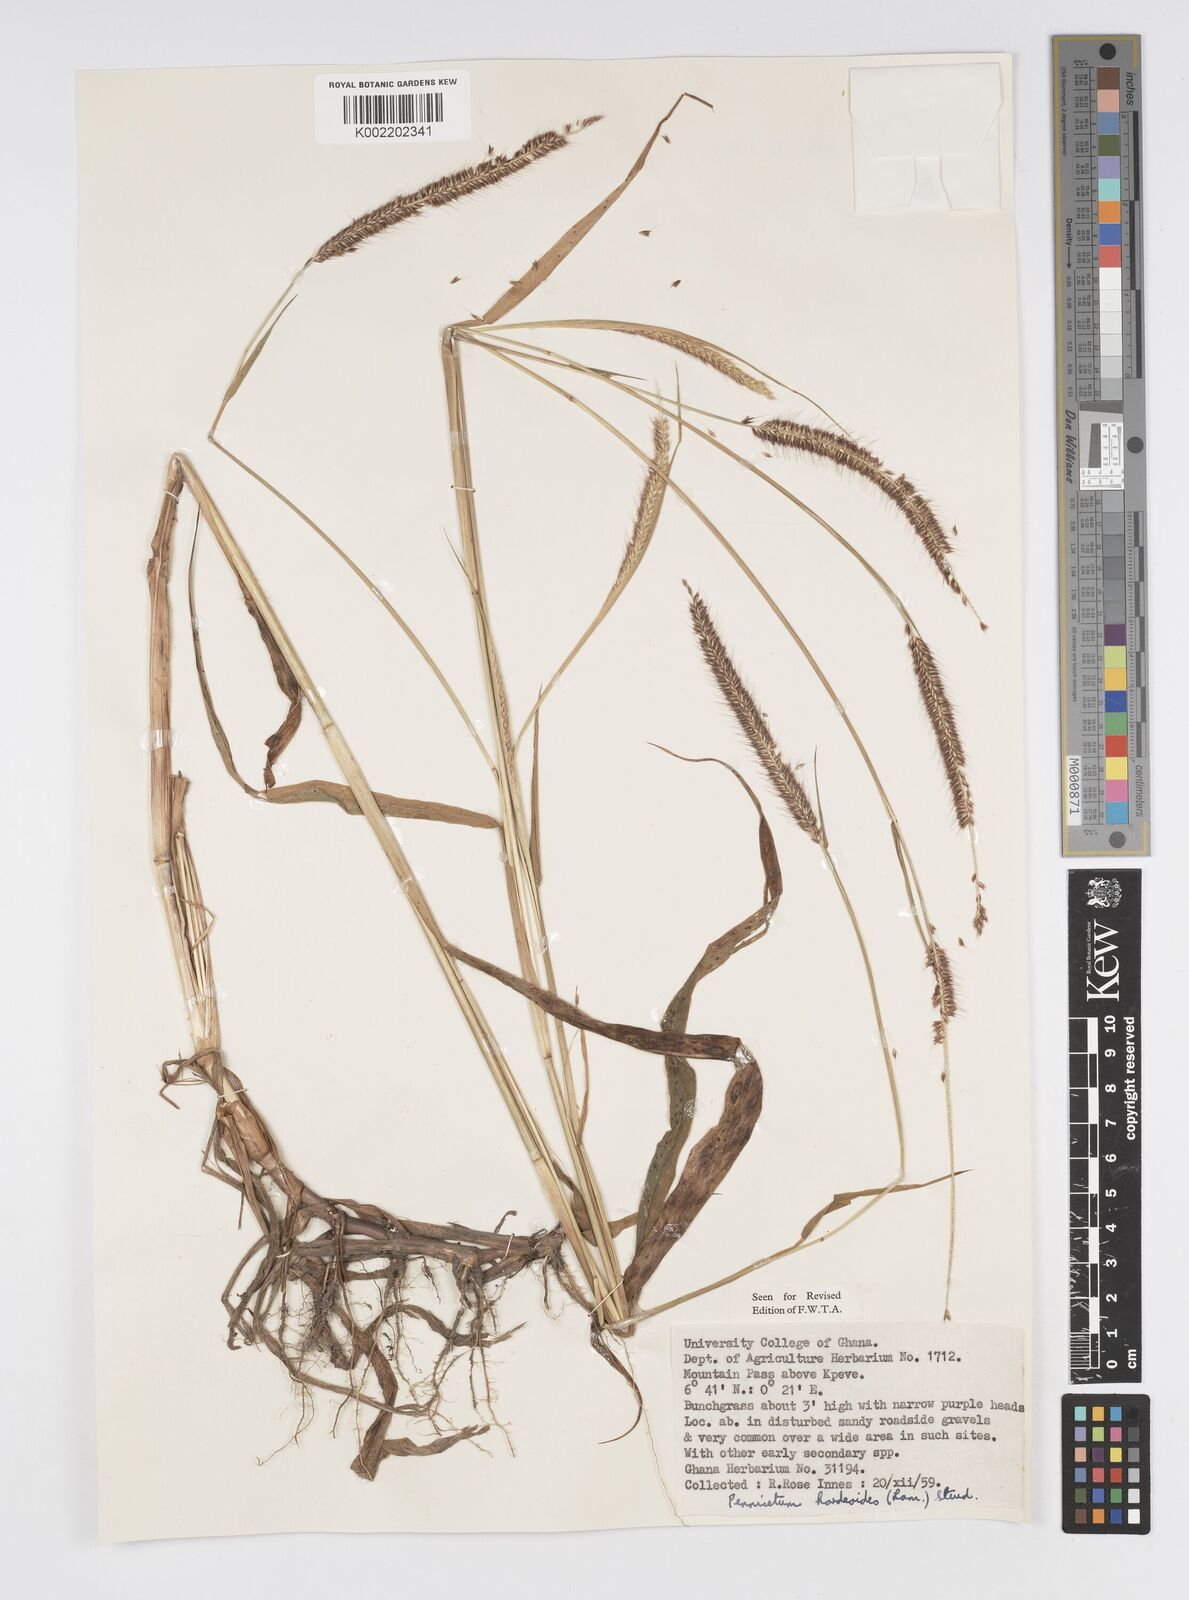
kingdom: Plantae
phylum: Tracheophyta
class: Liliopsida
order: Poales
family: Poaceae
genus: Cenchrus
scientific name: Cenchrus hordeoides
